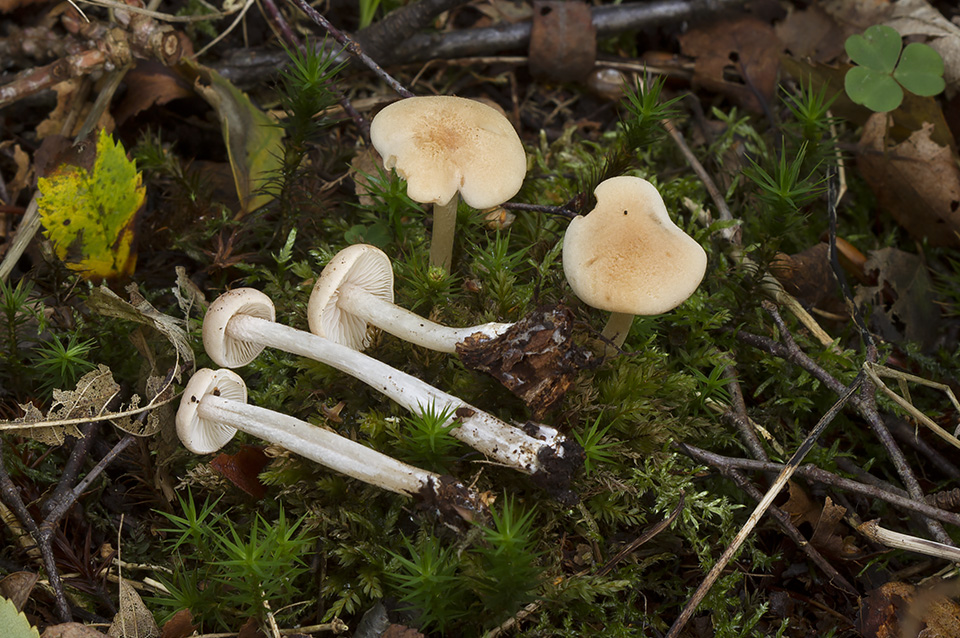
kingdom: Fungi
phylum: Basidiomycota
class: Agaricomycetes
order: Agaricales
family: Entolomataceae
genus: Entoloma
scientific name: Entoloma queletii
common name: rosalilla rødblad
